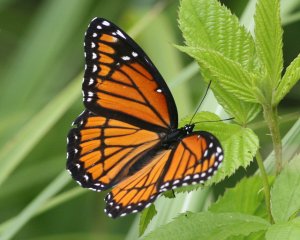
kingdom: Animalia
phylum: Arthropoda
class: Insecta
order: Lepidoptera
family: Nymphalidae
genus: Limenitis
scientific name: Limenitis archippus
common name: Viceroy
